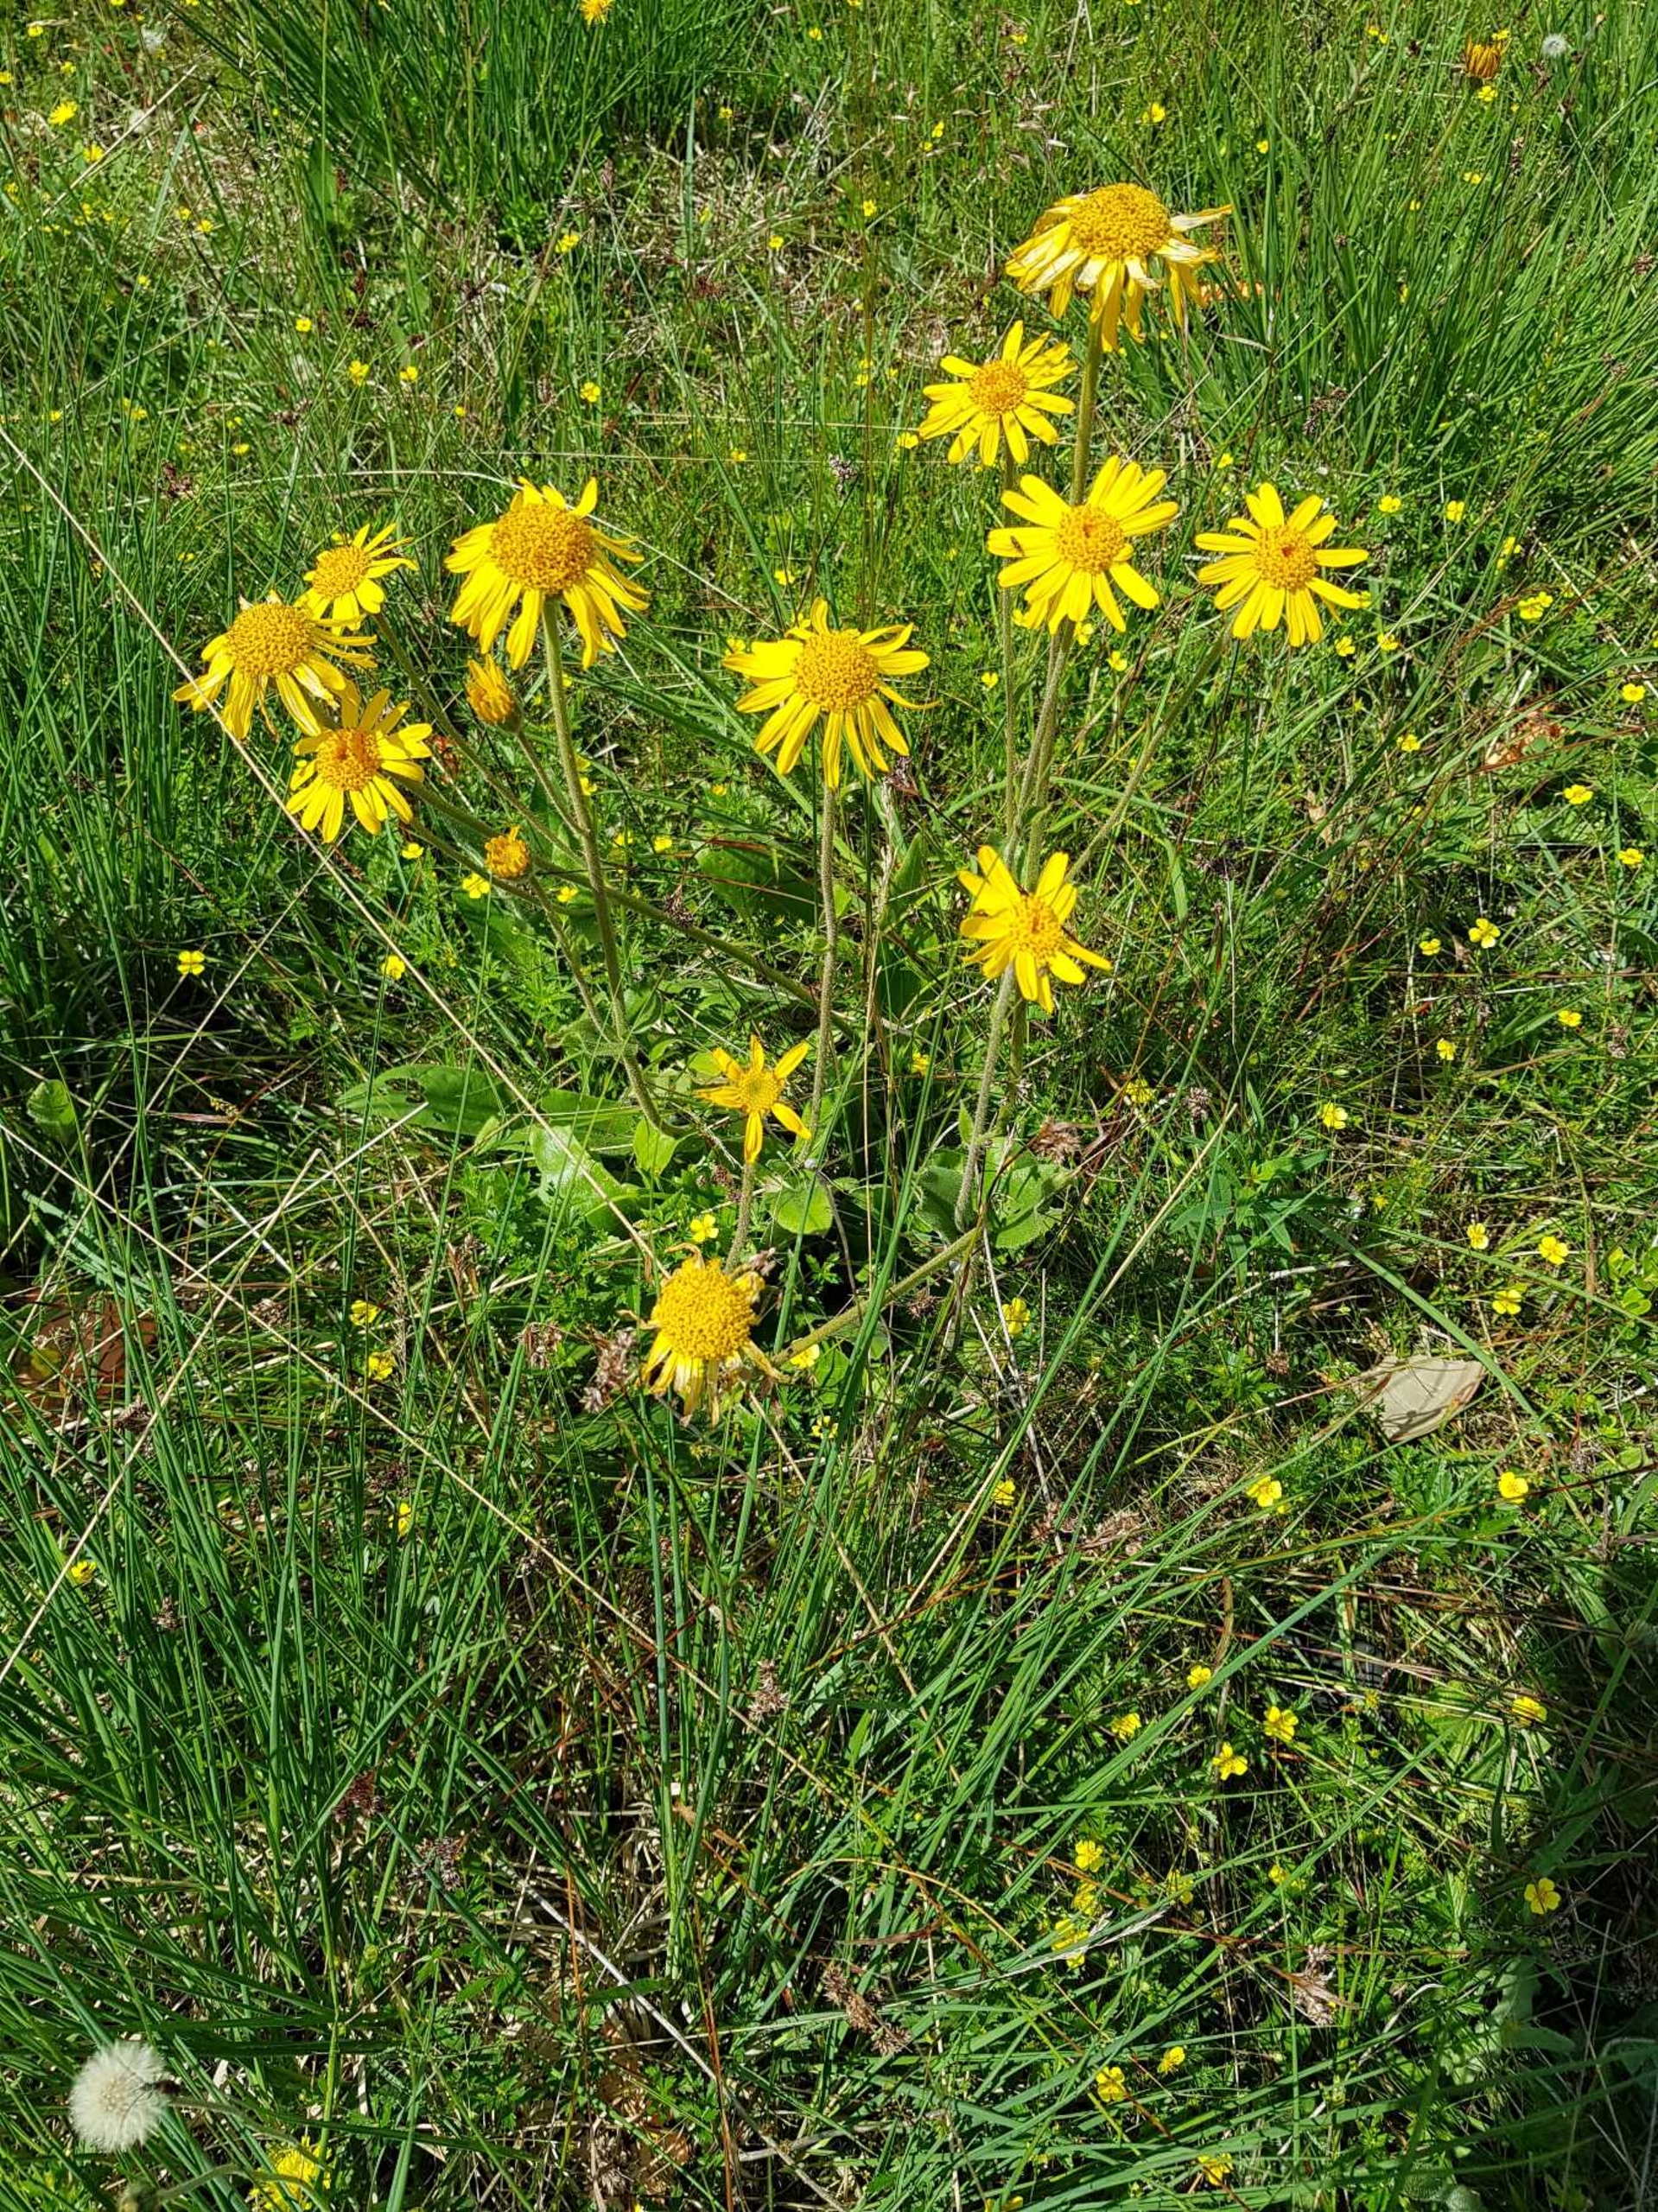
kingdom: Plantae
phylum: Tracheophyta
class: Magnoliopsida
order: Asterales
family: Asteraceae
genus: Arnica
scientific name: Arnica montana
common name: Guldblomme
